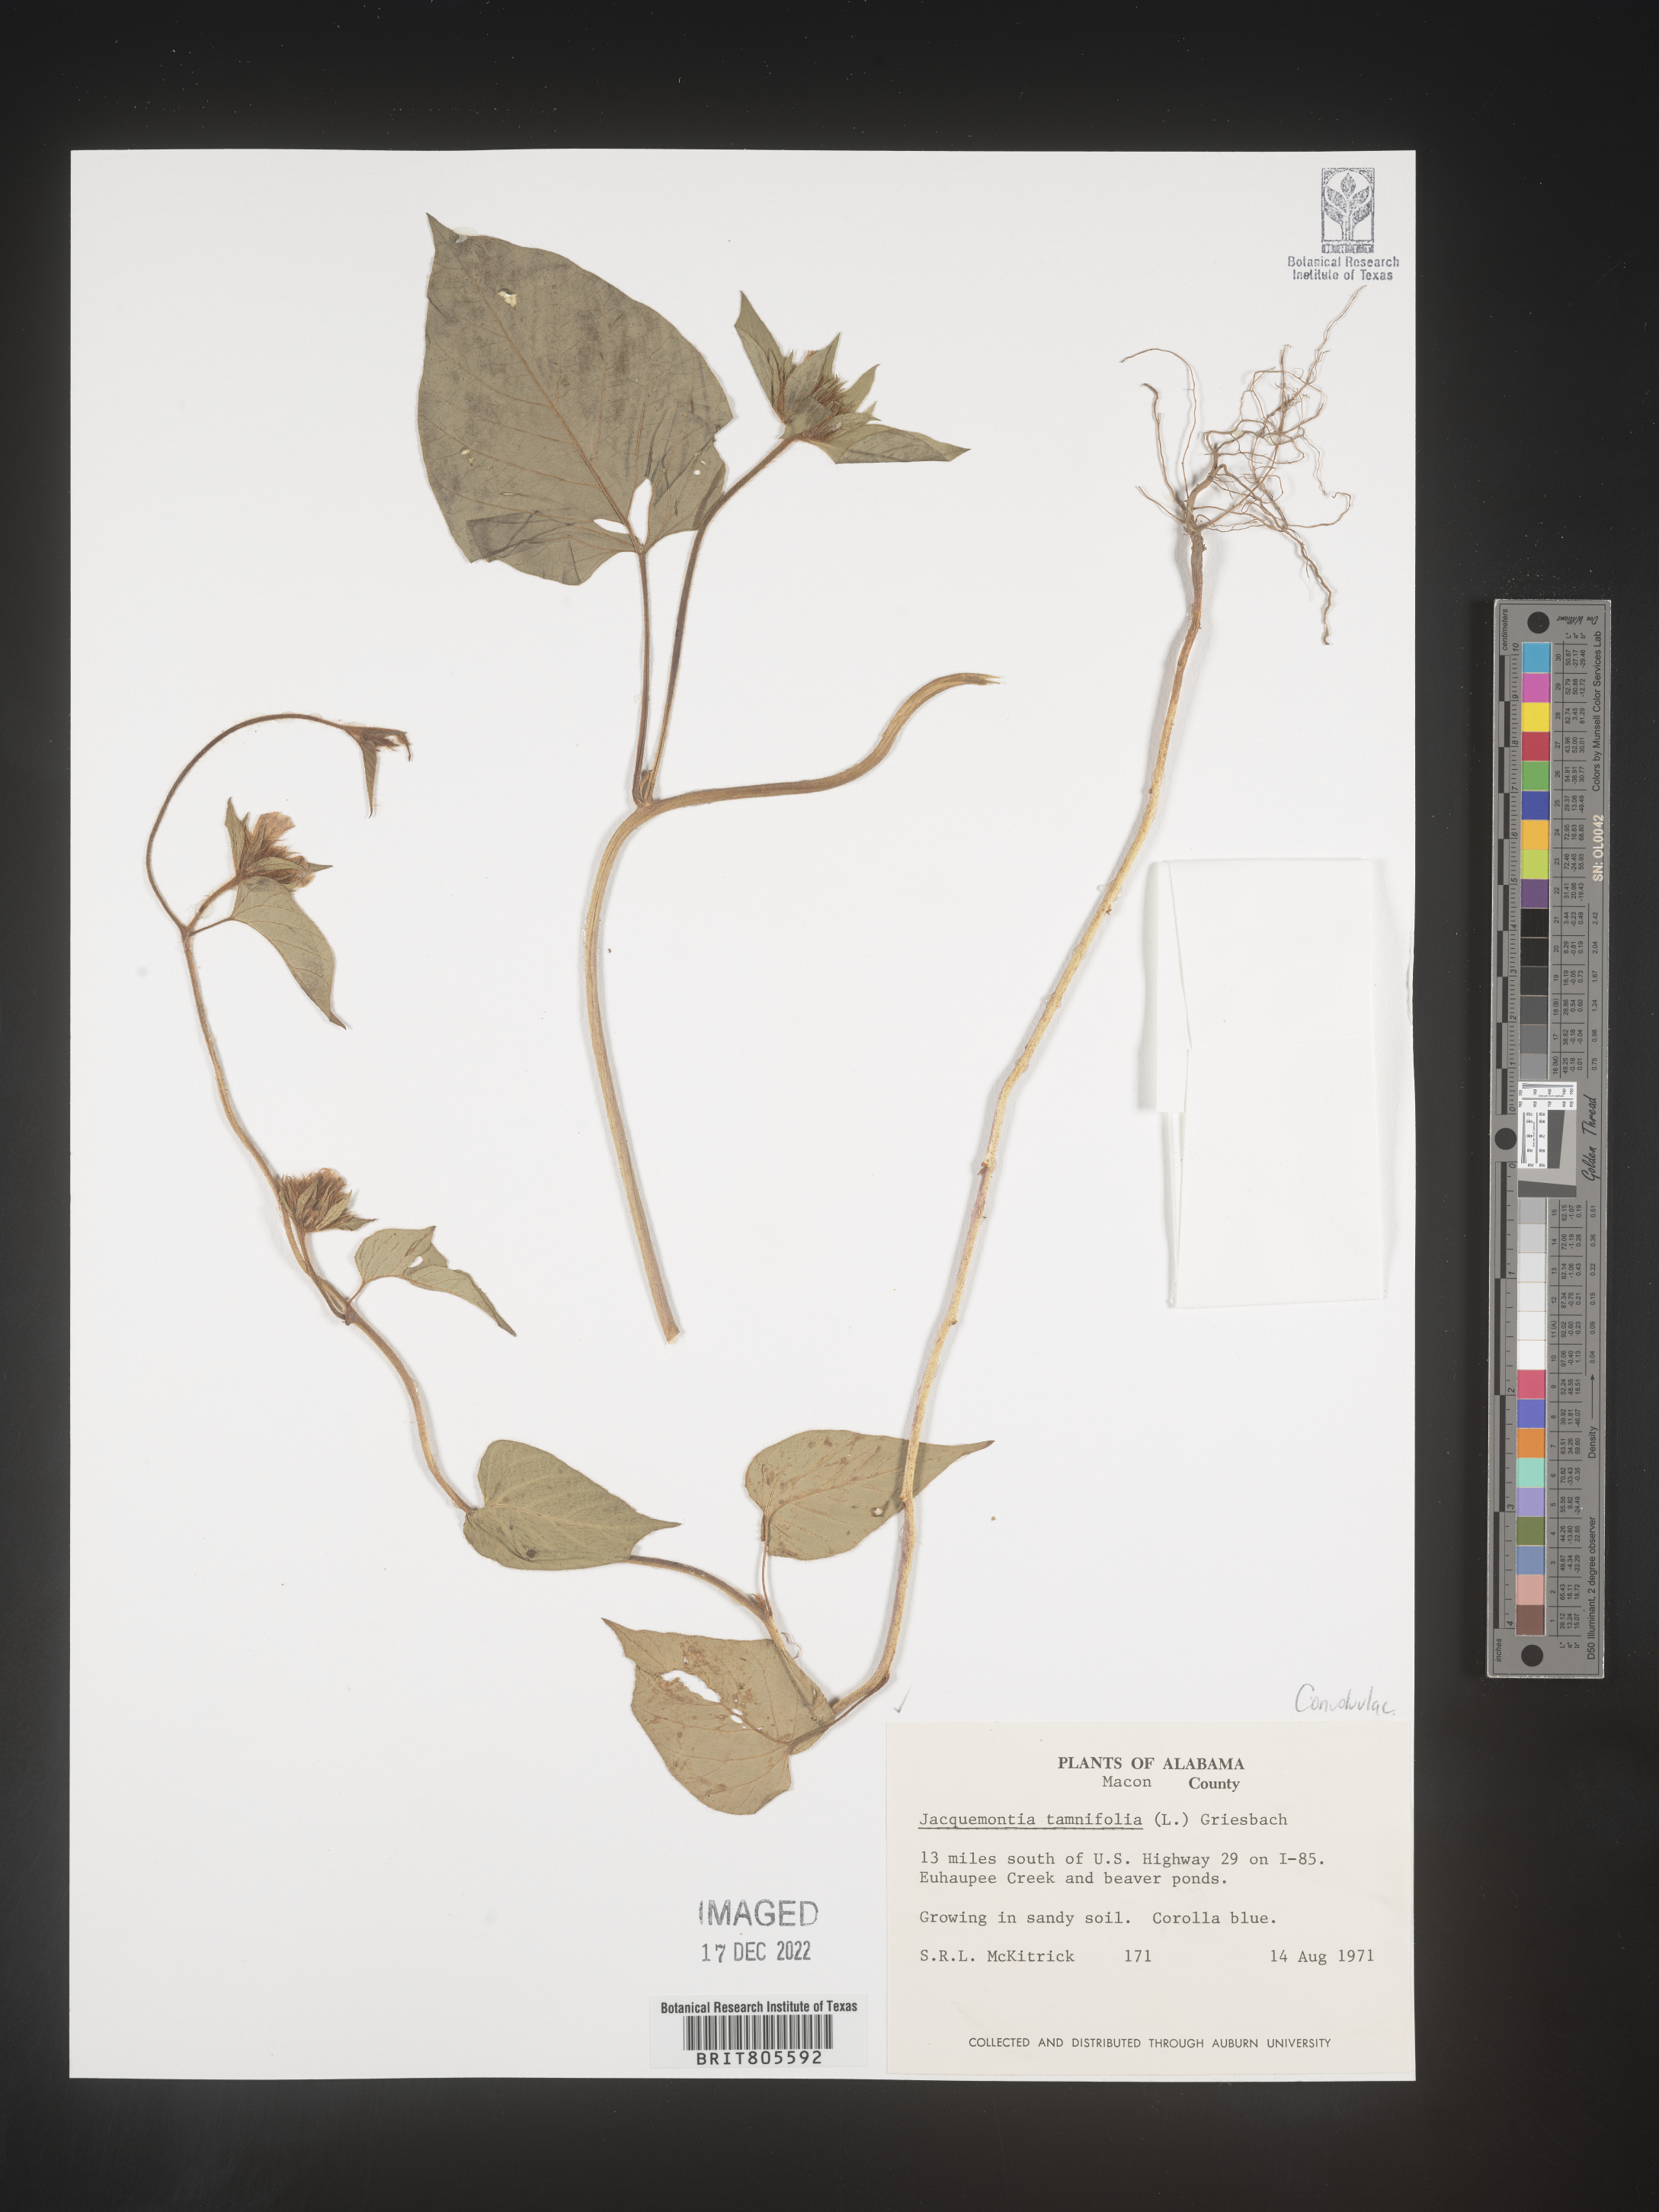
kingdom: Plantae
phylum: Tracheophyta
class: Magnoliopsida
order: Solanales
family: Convolvulaceae
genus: Jacquemontia
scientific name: Jacquemontia tamnifolia
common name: Hairy clustervine
